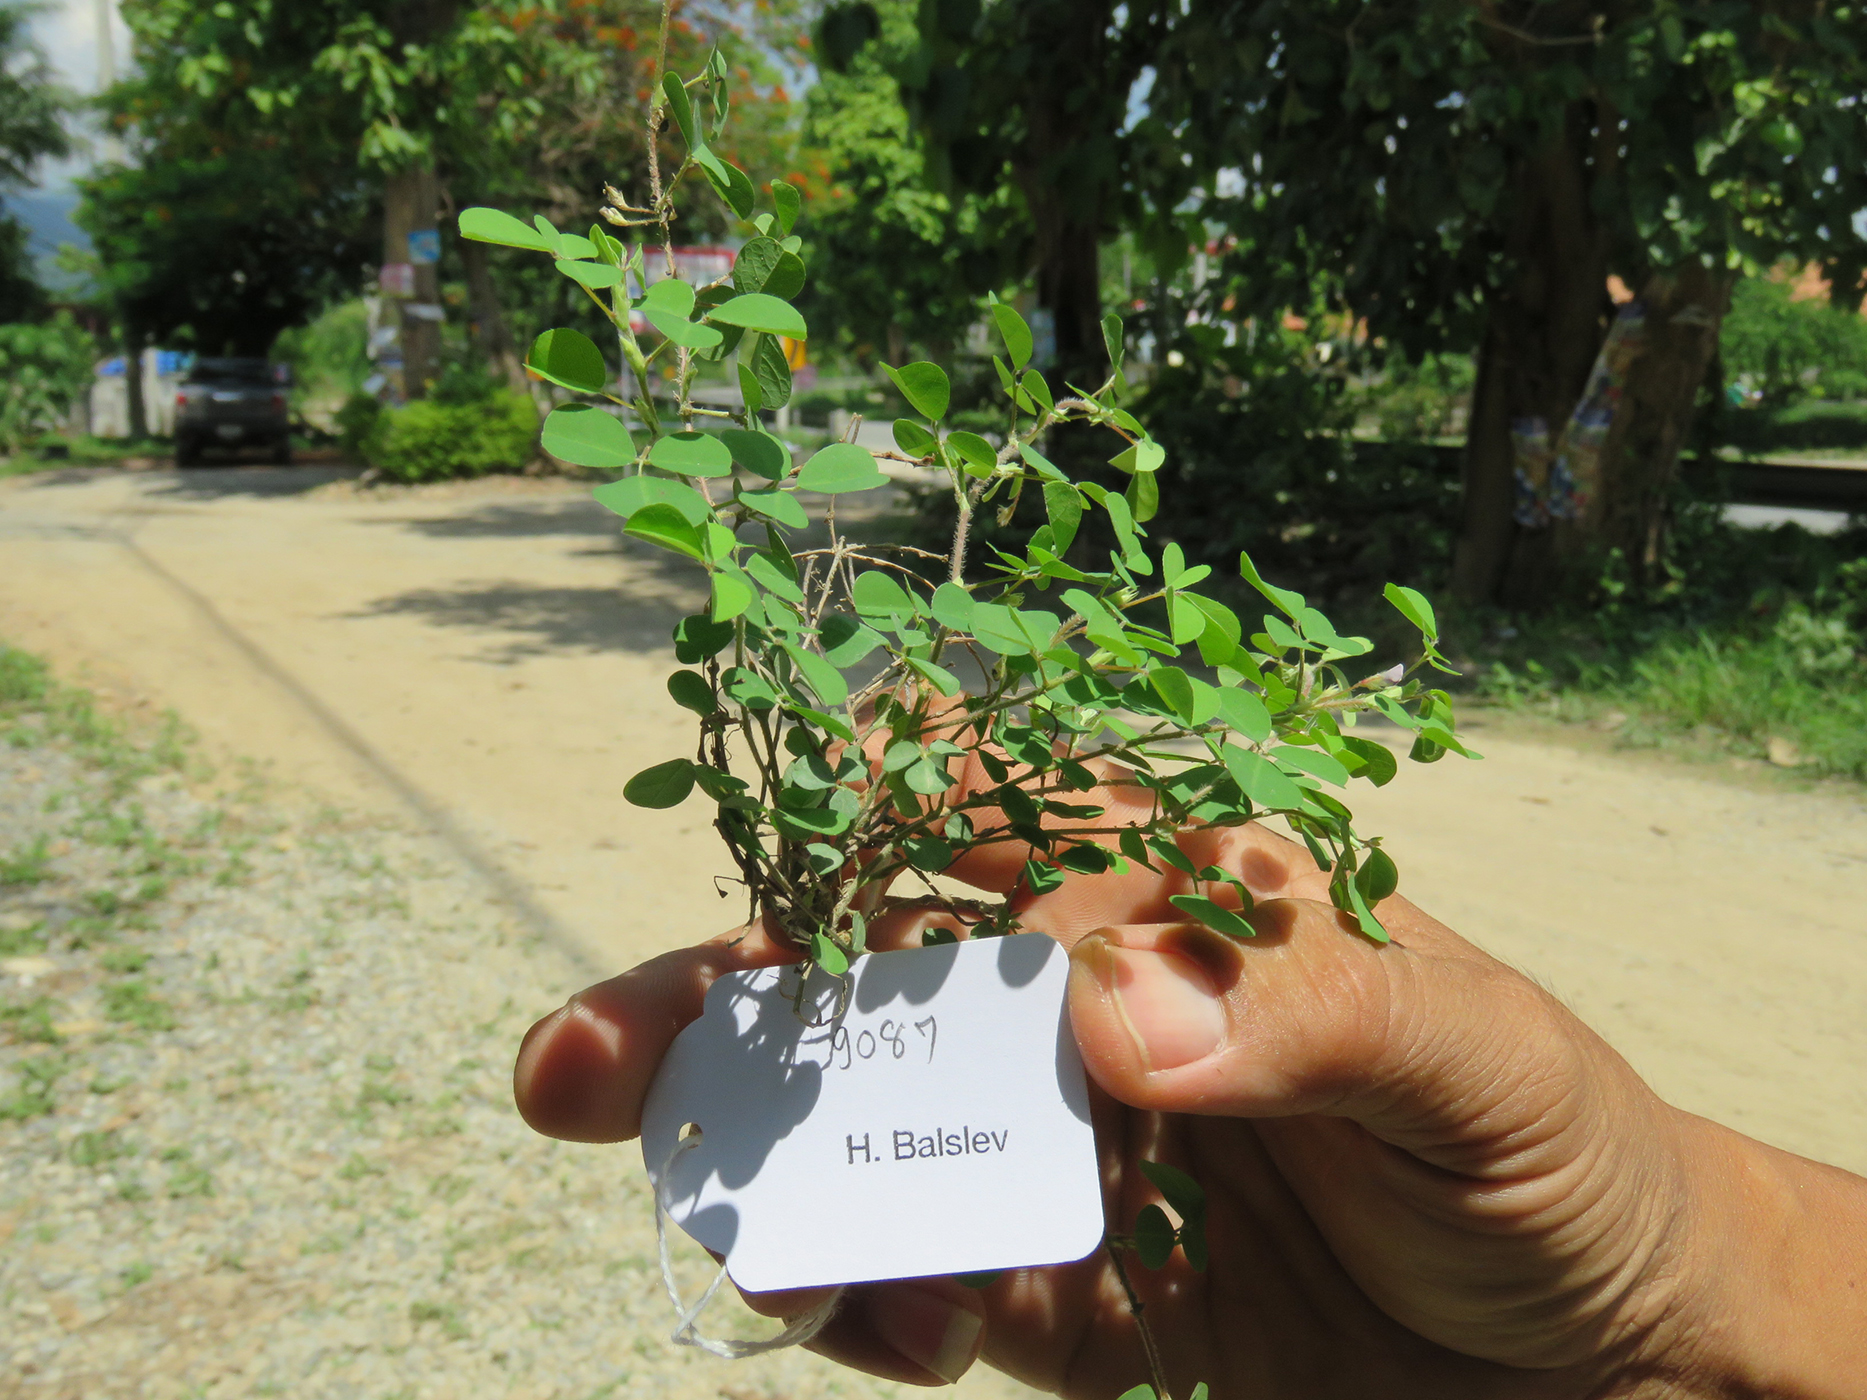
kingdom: Plantae
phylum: Tracheophyta
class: Magnoliopsida
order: Fabales
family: Fabaceae
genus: Grona
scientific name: Grona triflora
